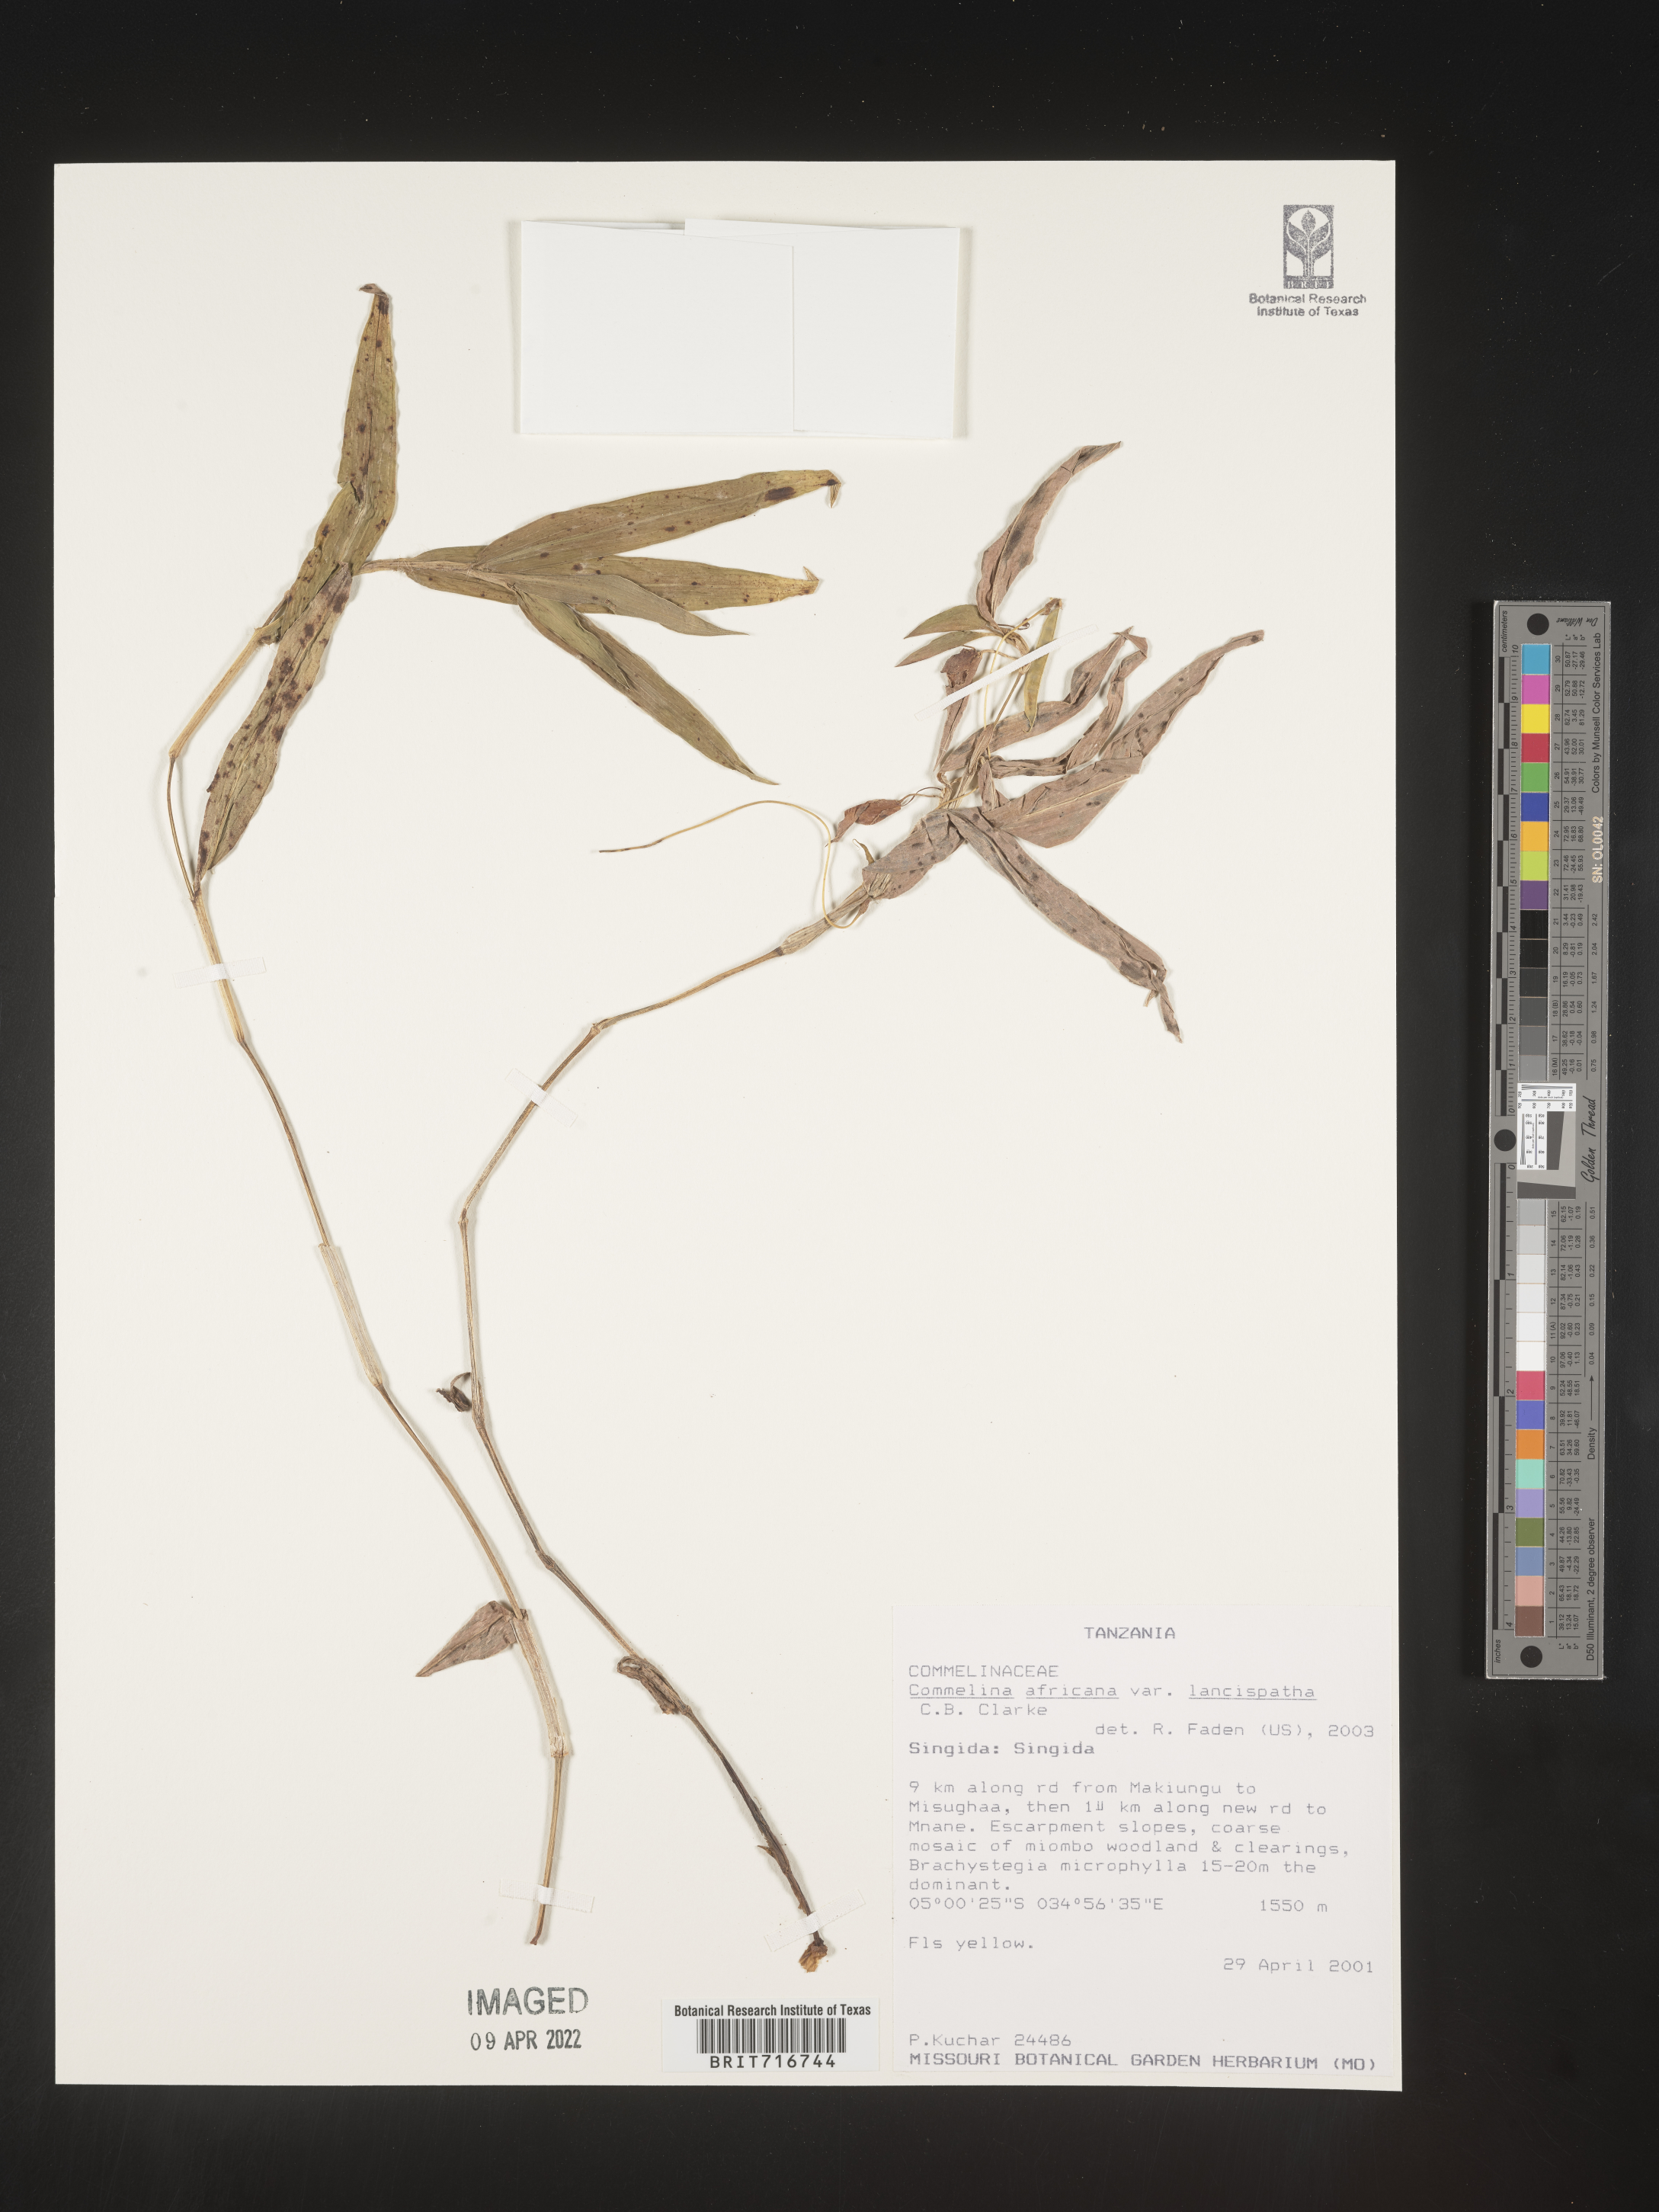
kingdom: Plantae
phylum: Tracheophyta
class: Liliopsida
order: Commelinales
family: Commelinaceae
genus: Commelina
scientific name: Commelina
